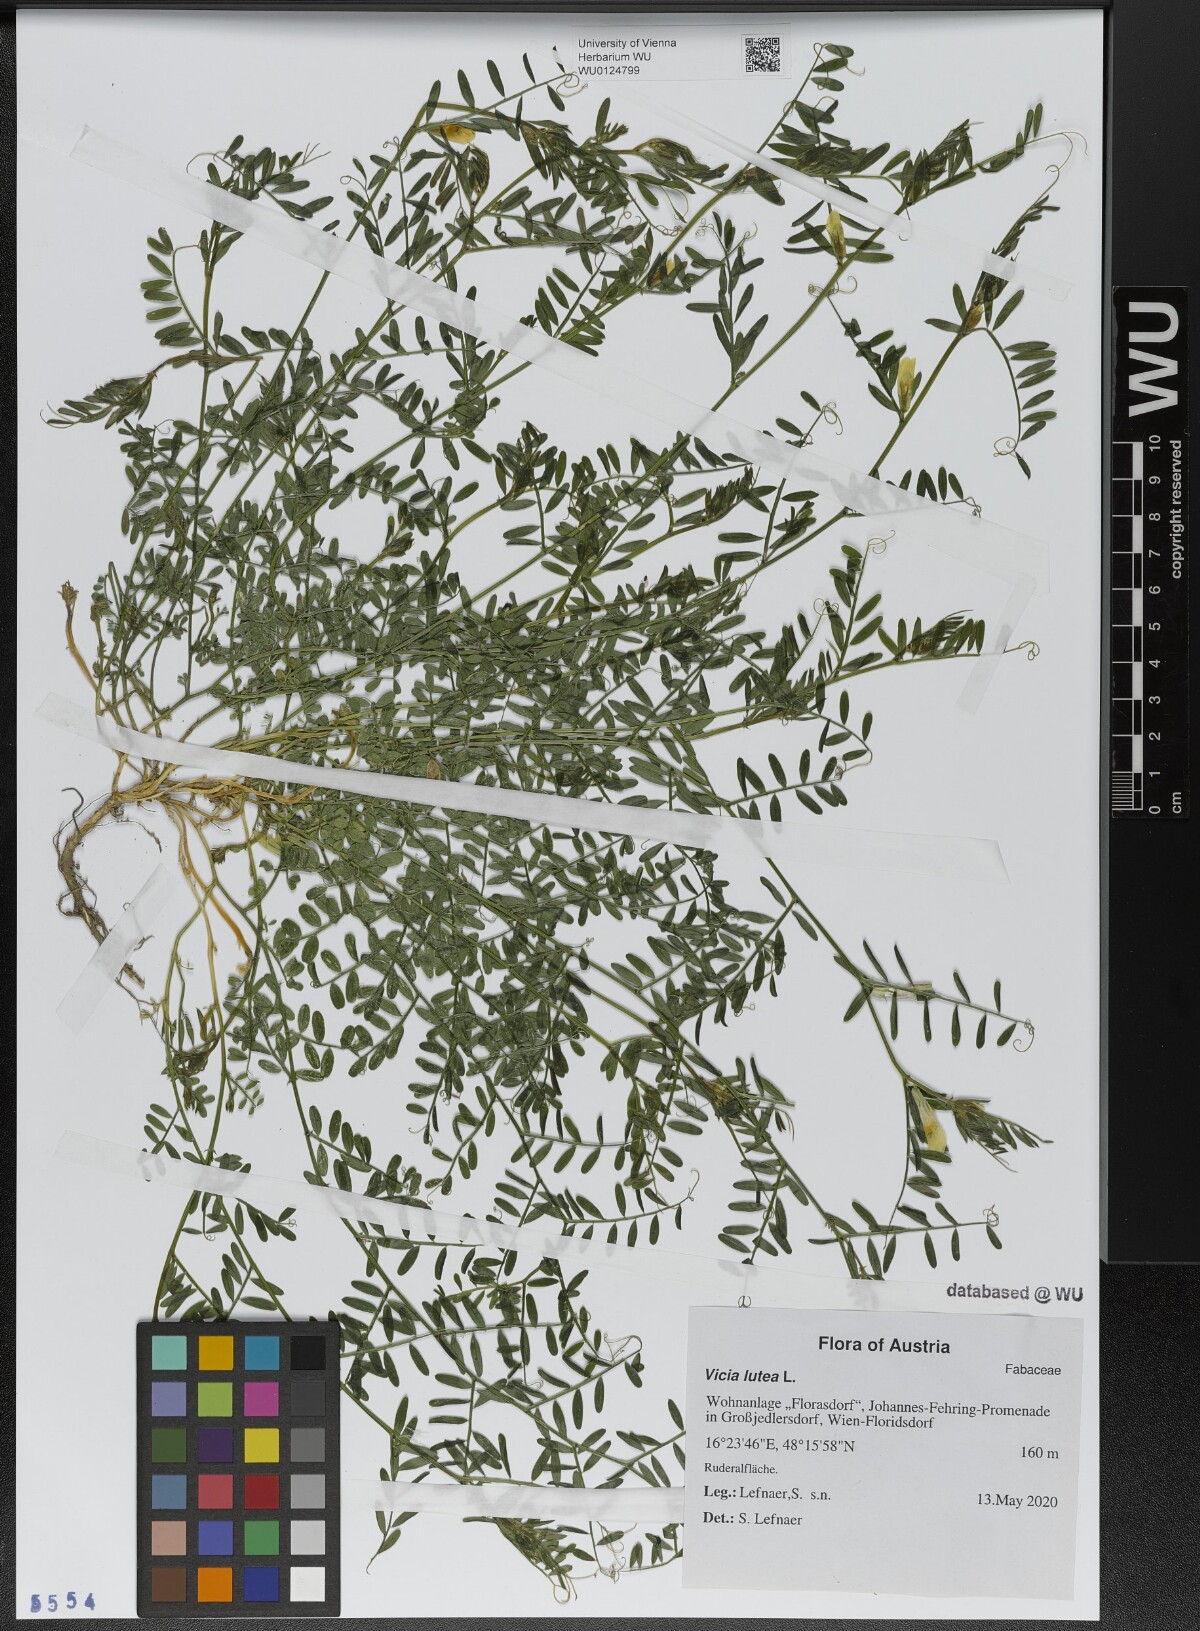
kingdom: Plantae
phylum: Tracheophyta
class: Magnoliopsida
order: Fabales
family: Fabaceae
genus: Vicia
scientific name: Vicia lutea
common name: Smooth yellow vetch
